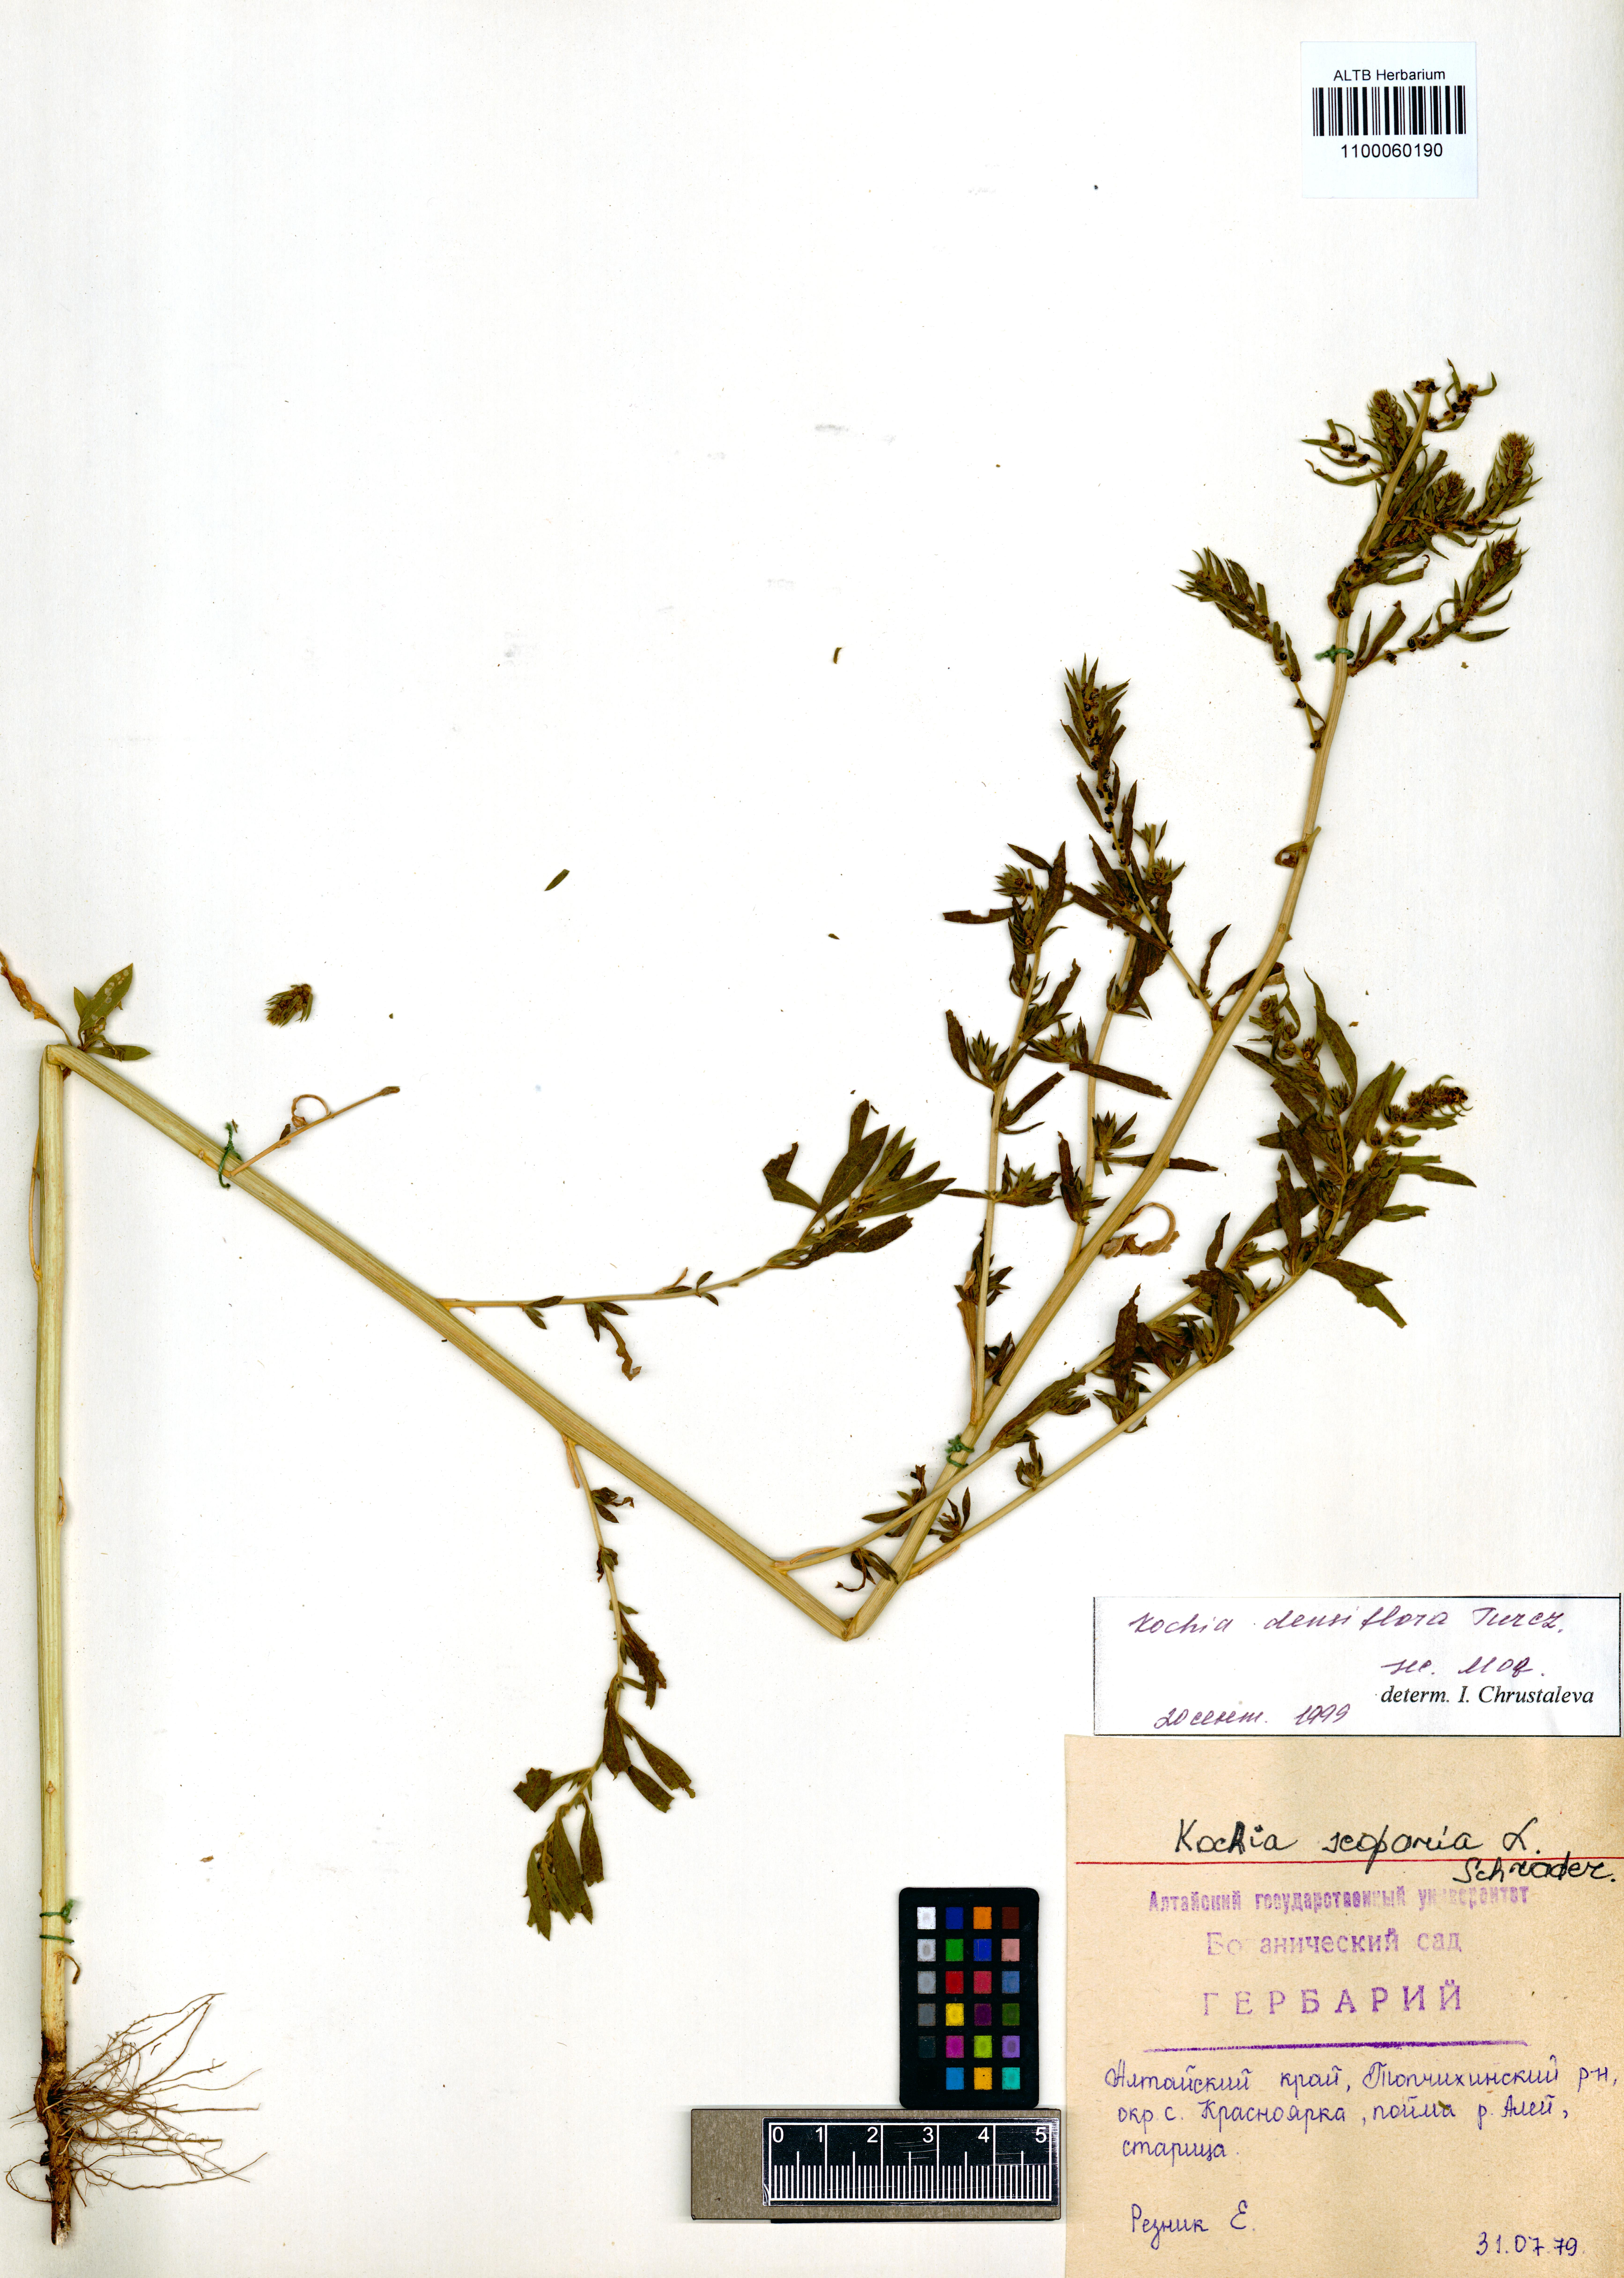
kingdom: Plantae
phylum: Tracheophyta
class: Magnoliopsida
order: Caryophyllales
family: Amaranthaceae
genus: Bassia
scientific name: Bassia scoparia
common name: Belvedere
